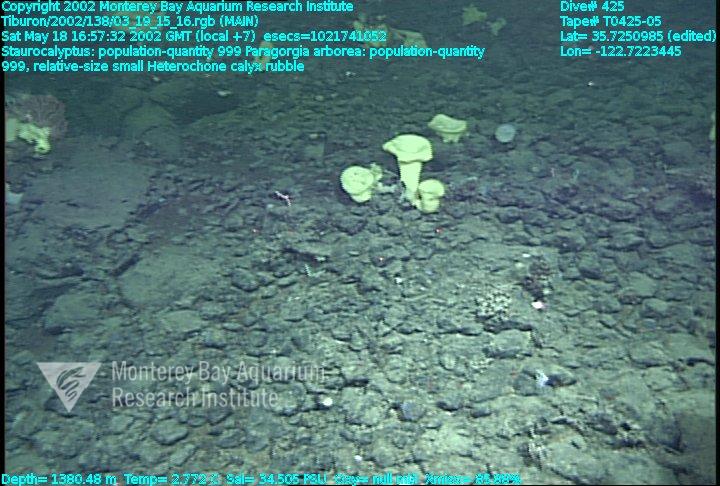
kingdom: Animalia
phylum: Porifera
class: Hexactinellida
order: Sceptrulophora
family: Aphrocallistidae
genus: Heterochone
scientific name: Heterochone calyx
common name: Fingered goblet glass sponge
